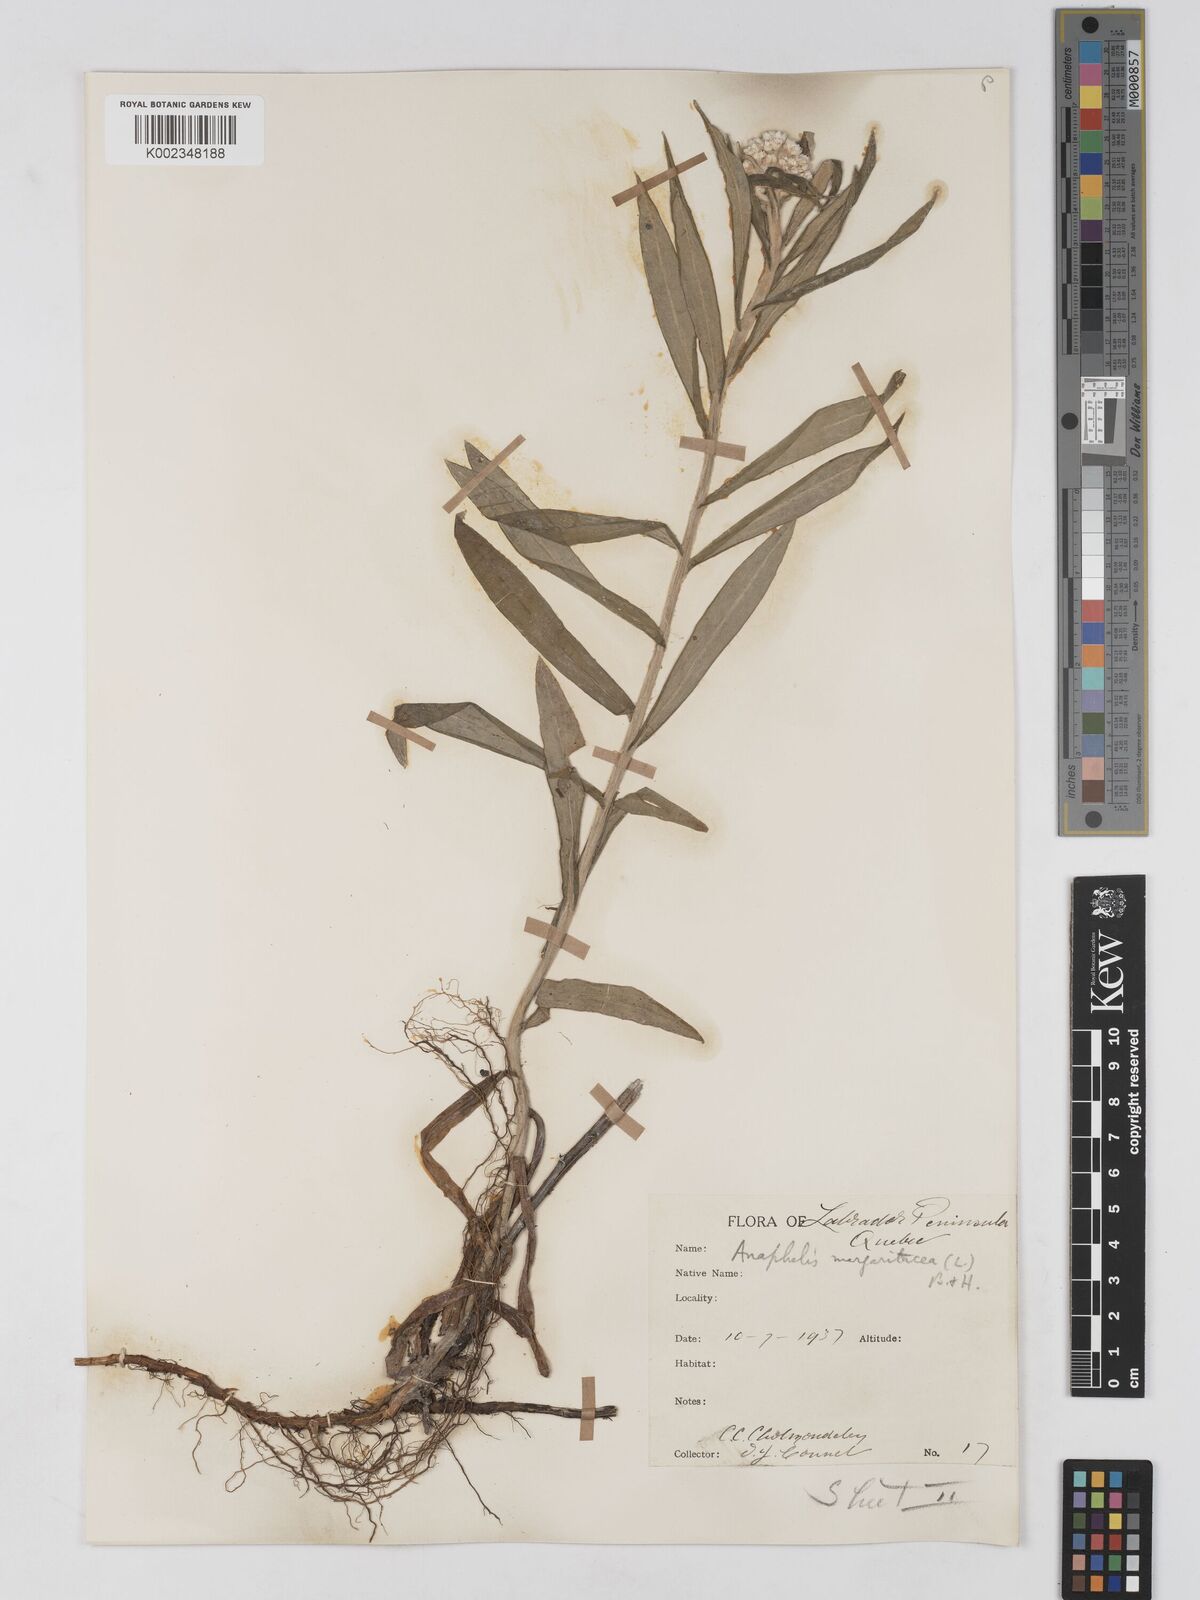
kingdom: Plantae
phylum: Tracheophyta
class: Magnoliopsida
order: Asterales
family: Asteraceae
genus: Anaphalis
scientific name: Anaphalis margaritacea
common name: Pearly everlasting
